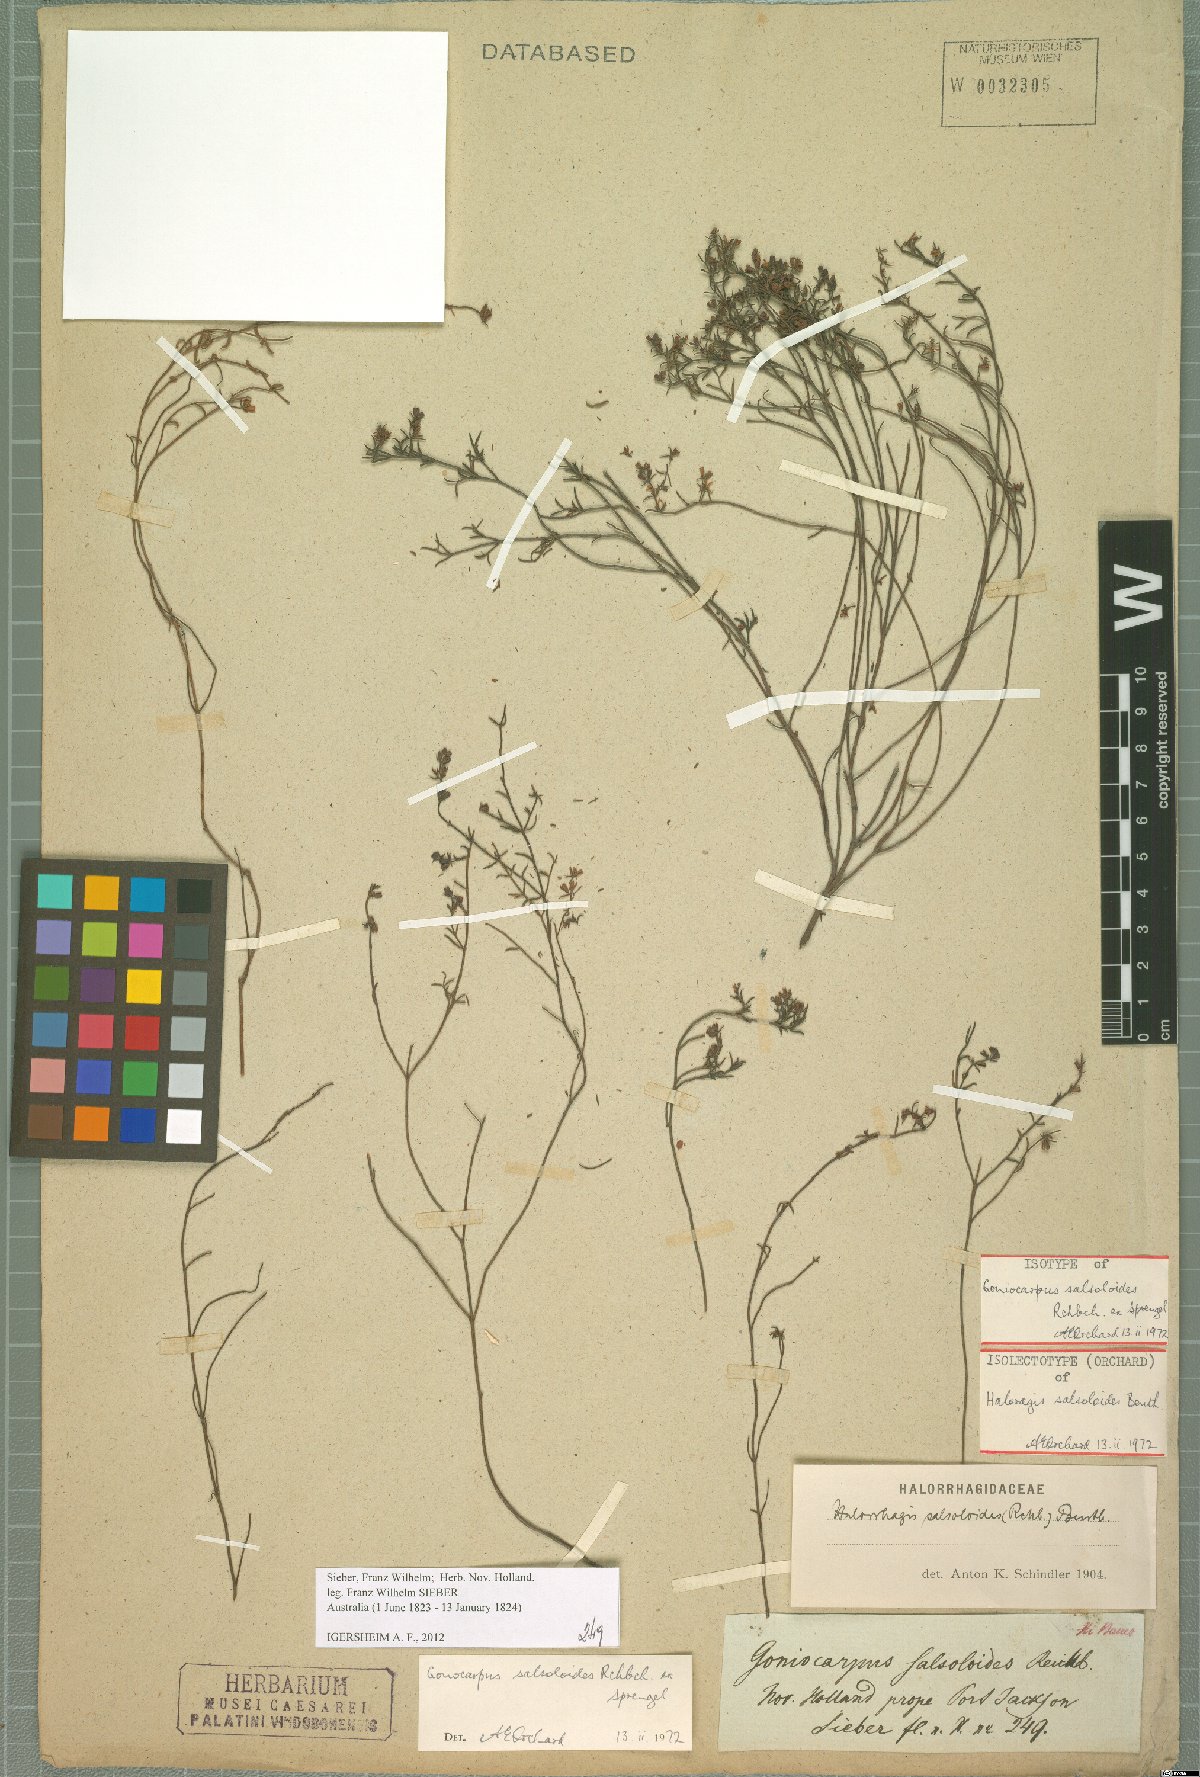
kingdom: Plantae
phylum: Tracheophyta
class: Magnoliopsida
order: Saxifragales
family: Haloragaceae
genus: Gonocarpus
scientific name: Gonocarpus salsoloides
